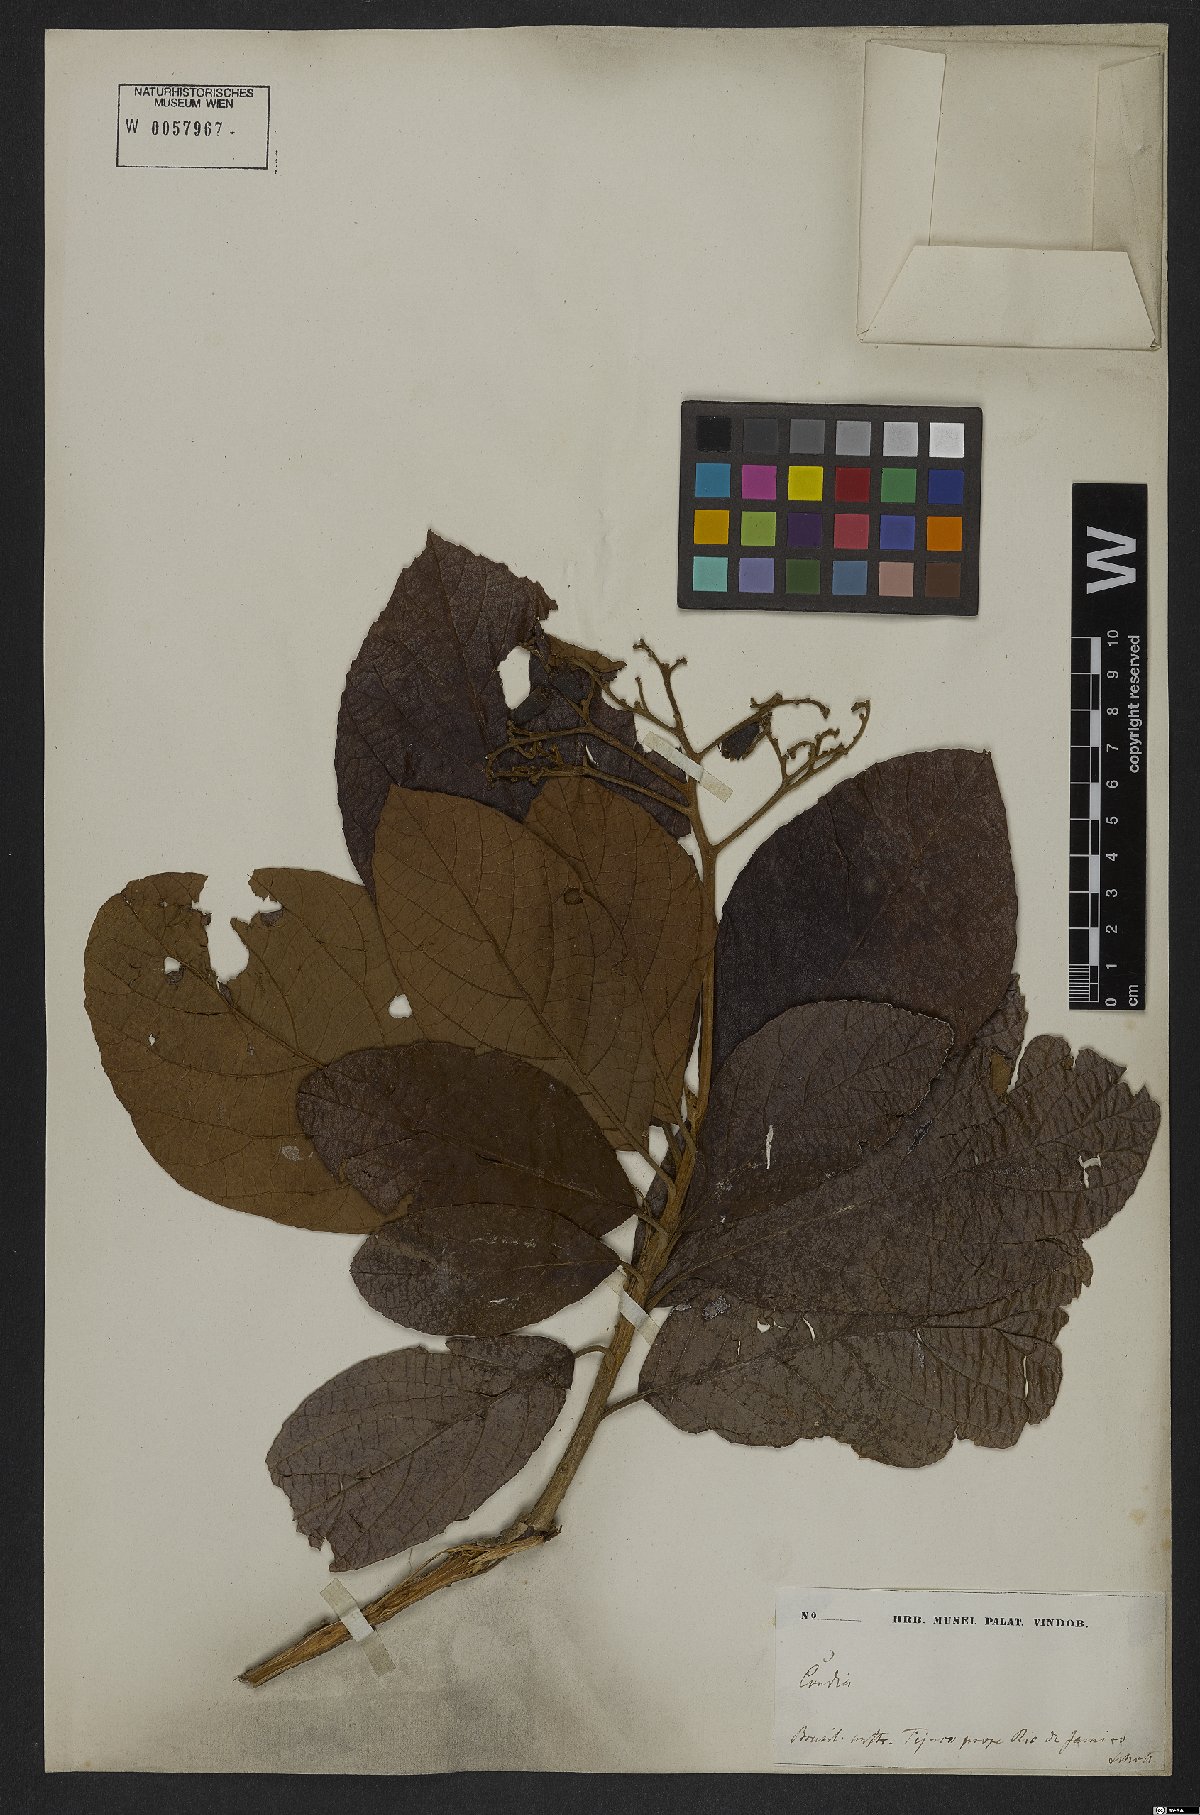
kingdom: Plantae
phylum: Tracheophyta
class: Magnoliopsida
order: Boraginales
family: Cordiaceae
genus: Cordia
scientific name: Cordia insignis
